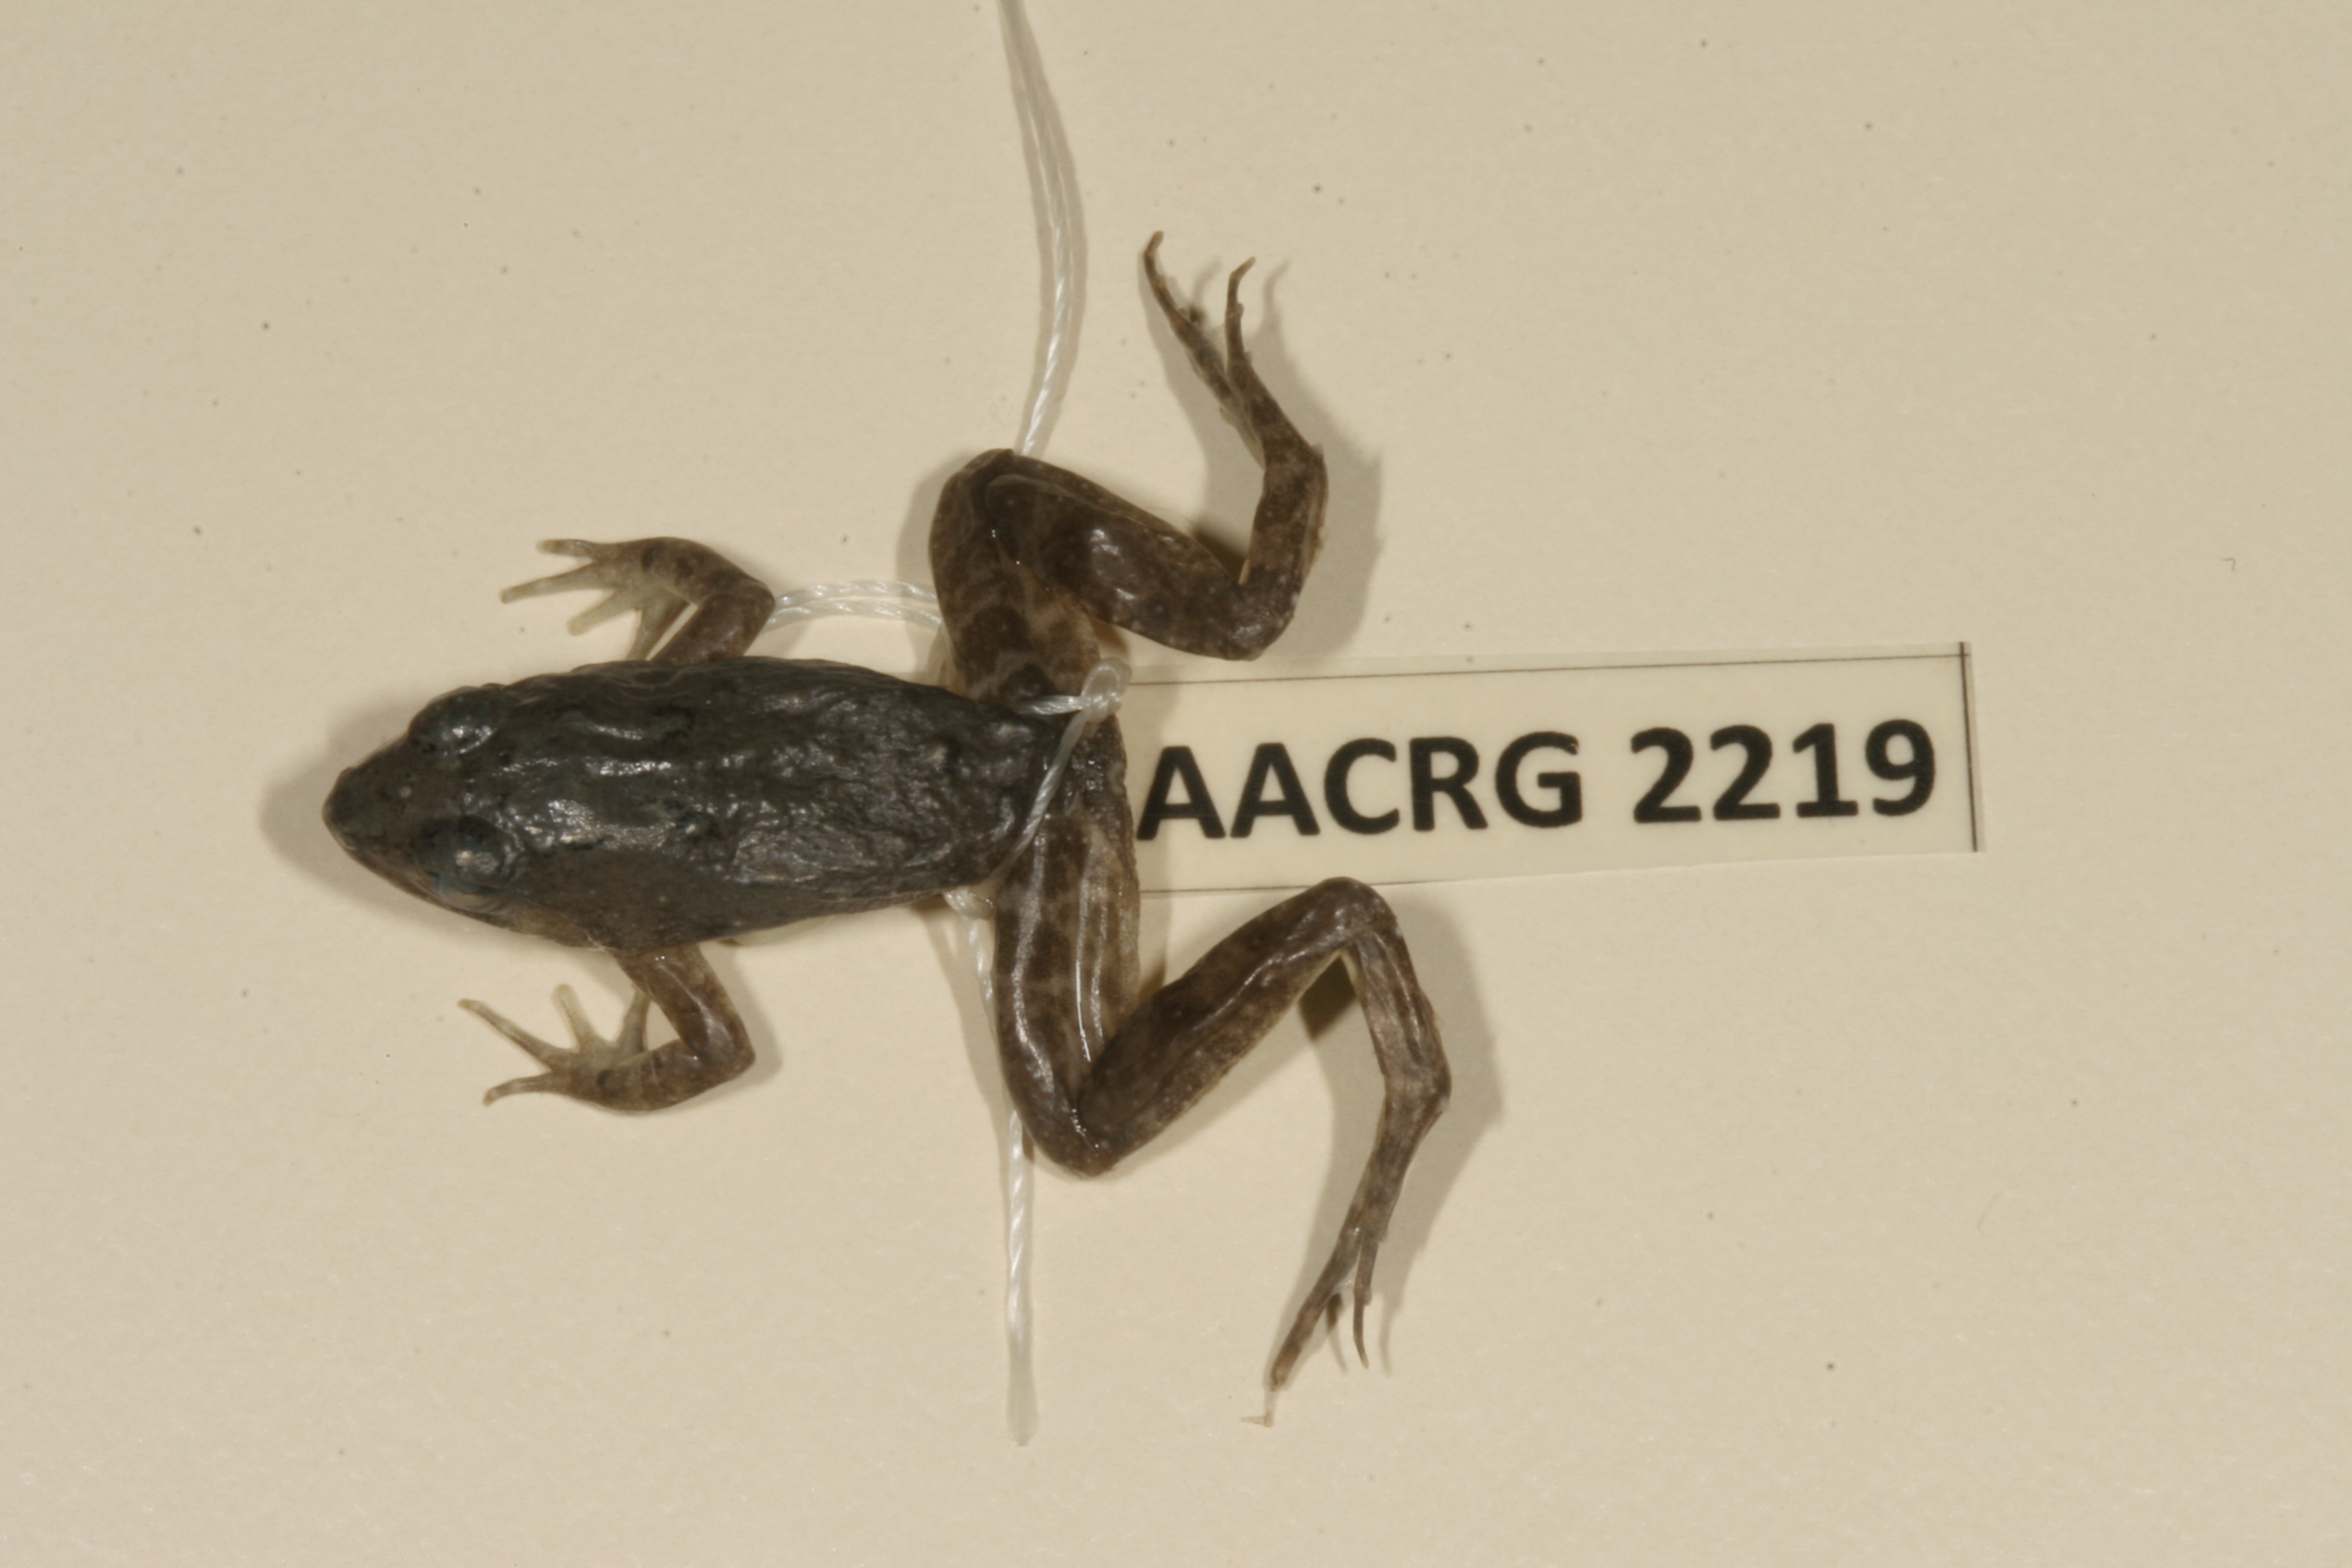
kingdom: Animalia
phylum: Chordata
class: Amphibia
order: Anura
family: Phrynobatrachidae
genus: Phrynobatrachus
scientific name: Phrynobatrachus natalensis
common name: Snoring puddle frog
